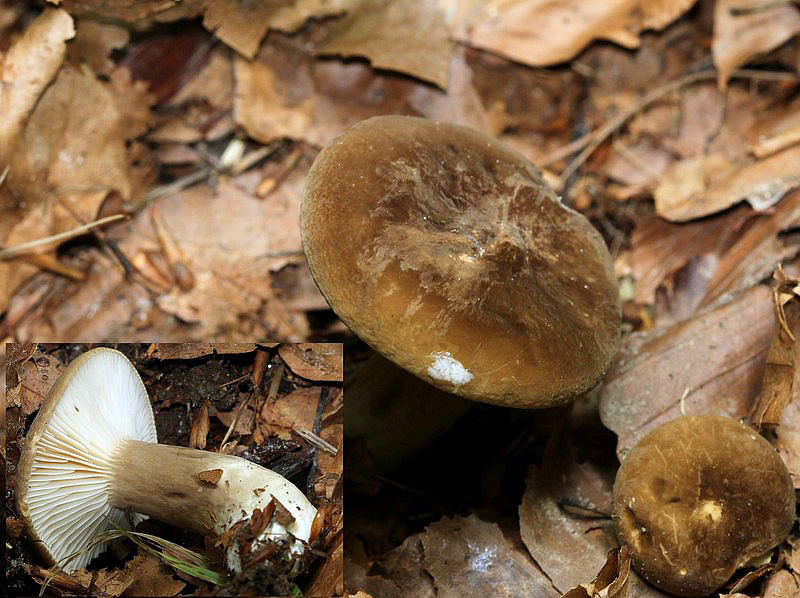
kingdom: Fungi
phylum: Basidiomycota
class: Agaricomycetes
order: Russulales
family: Russulaceae
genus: Lactarius
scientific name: Lactarius pterosporus
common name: vingesporet mælkehat
